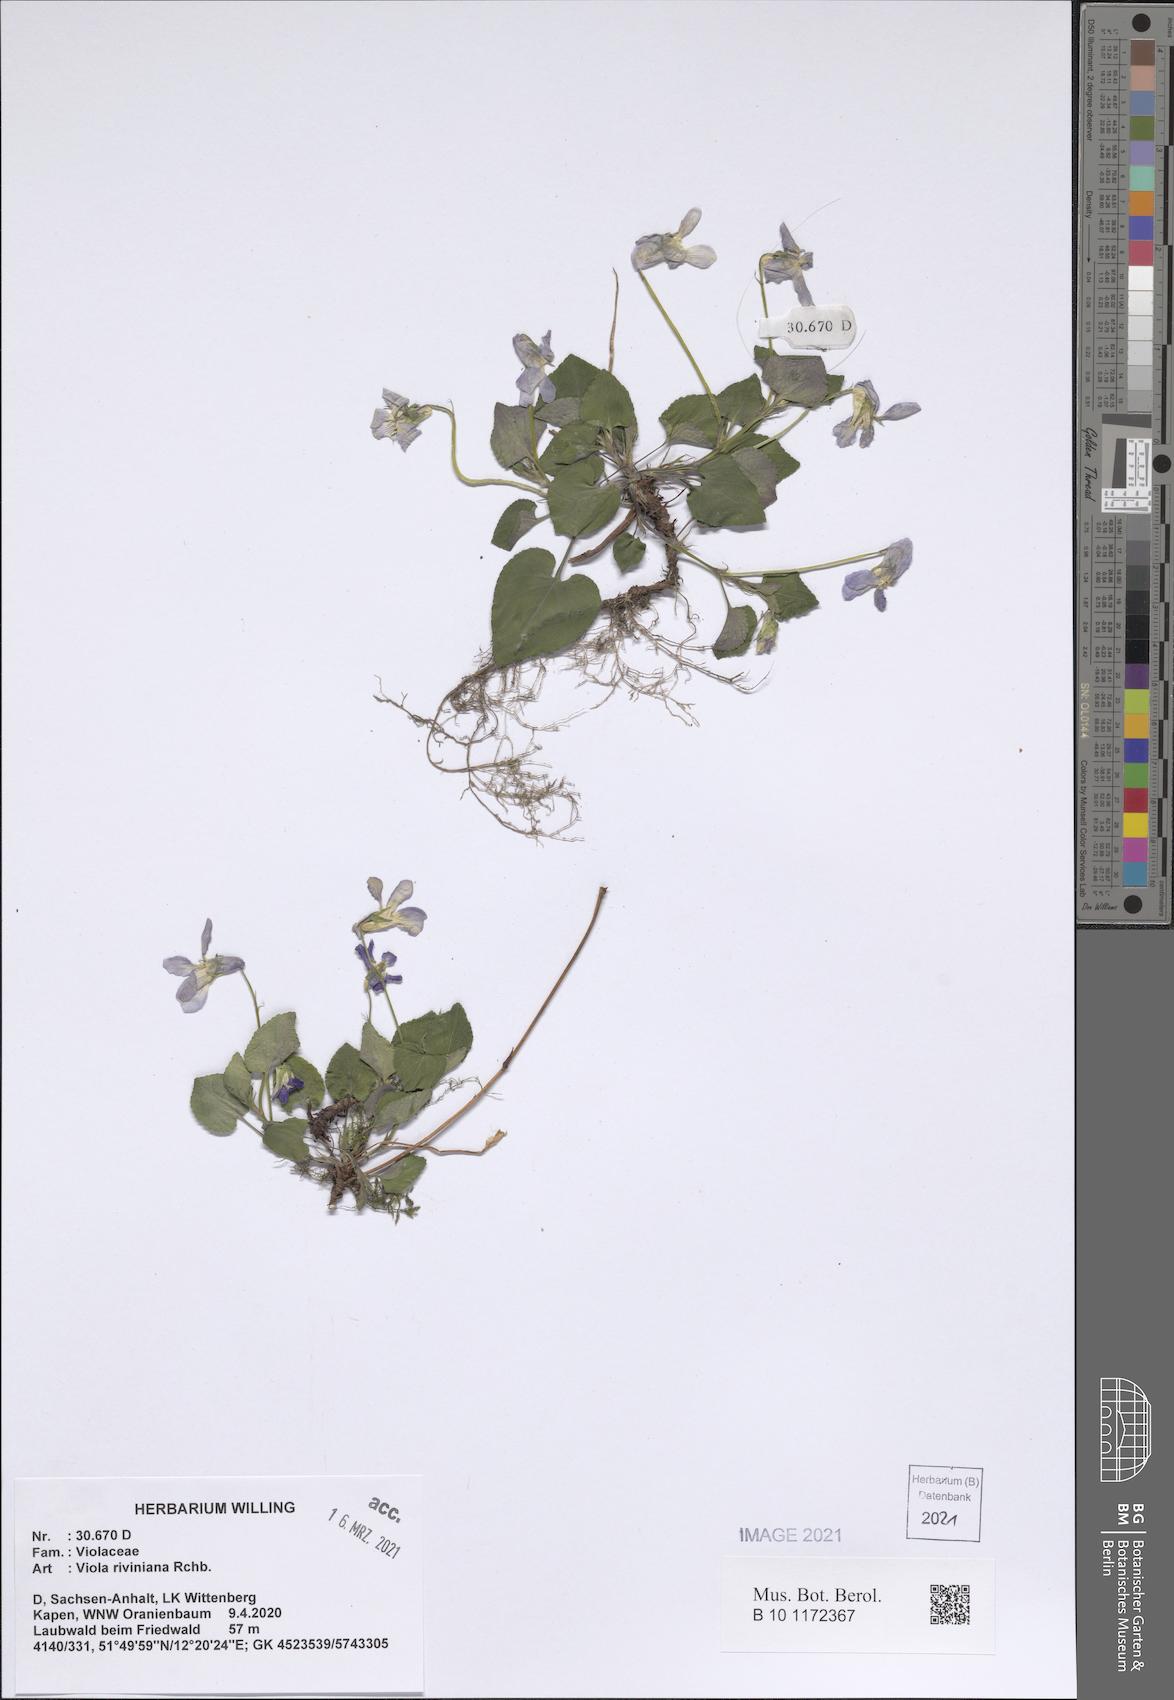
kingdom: Plantae
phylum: Tracheophyta
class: Magnoliopsida
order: Malpighiales
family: Violaceae
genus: Viola
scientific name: Viola riviniana
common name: Common dog-violet
